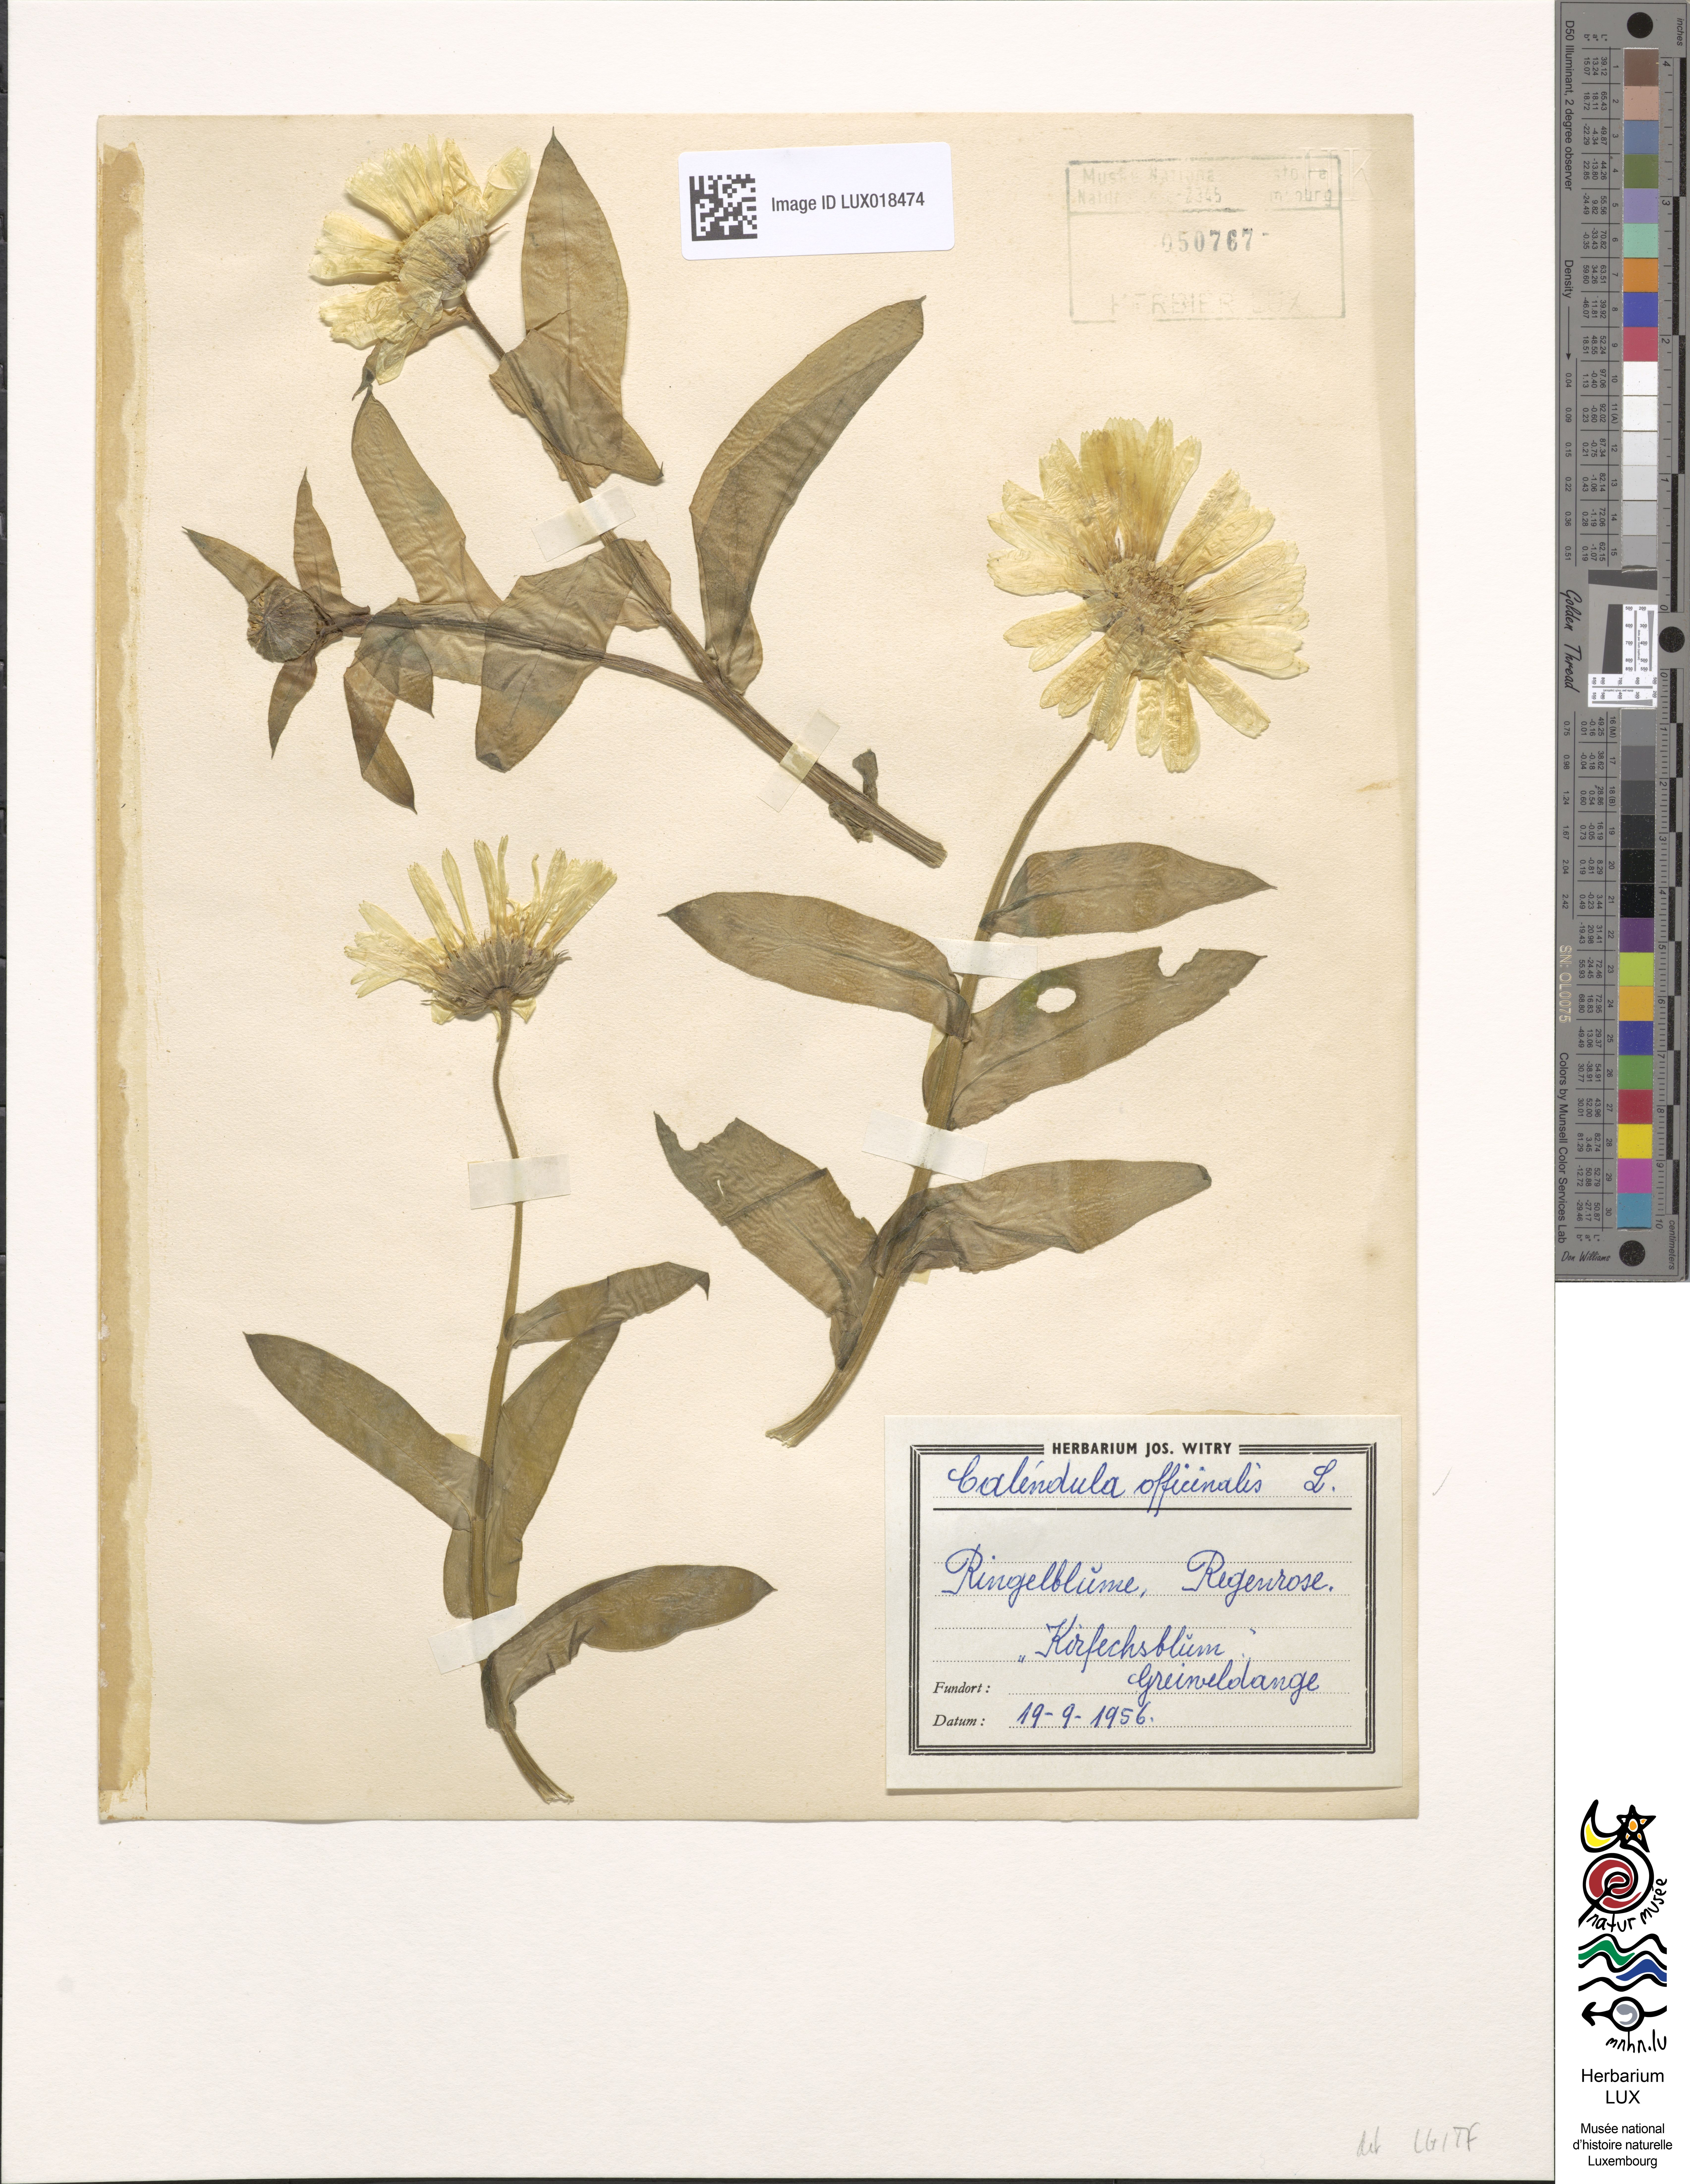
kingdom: Plantae
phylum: Tracheophyta
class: Magnoliopsida
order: Asterales
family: Asteraceae
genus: Calendula
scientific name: Calendula officinalis
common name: Pot marigold
